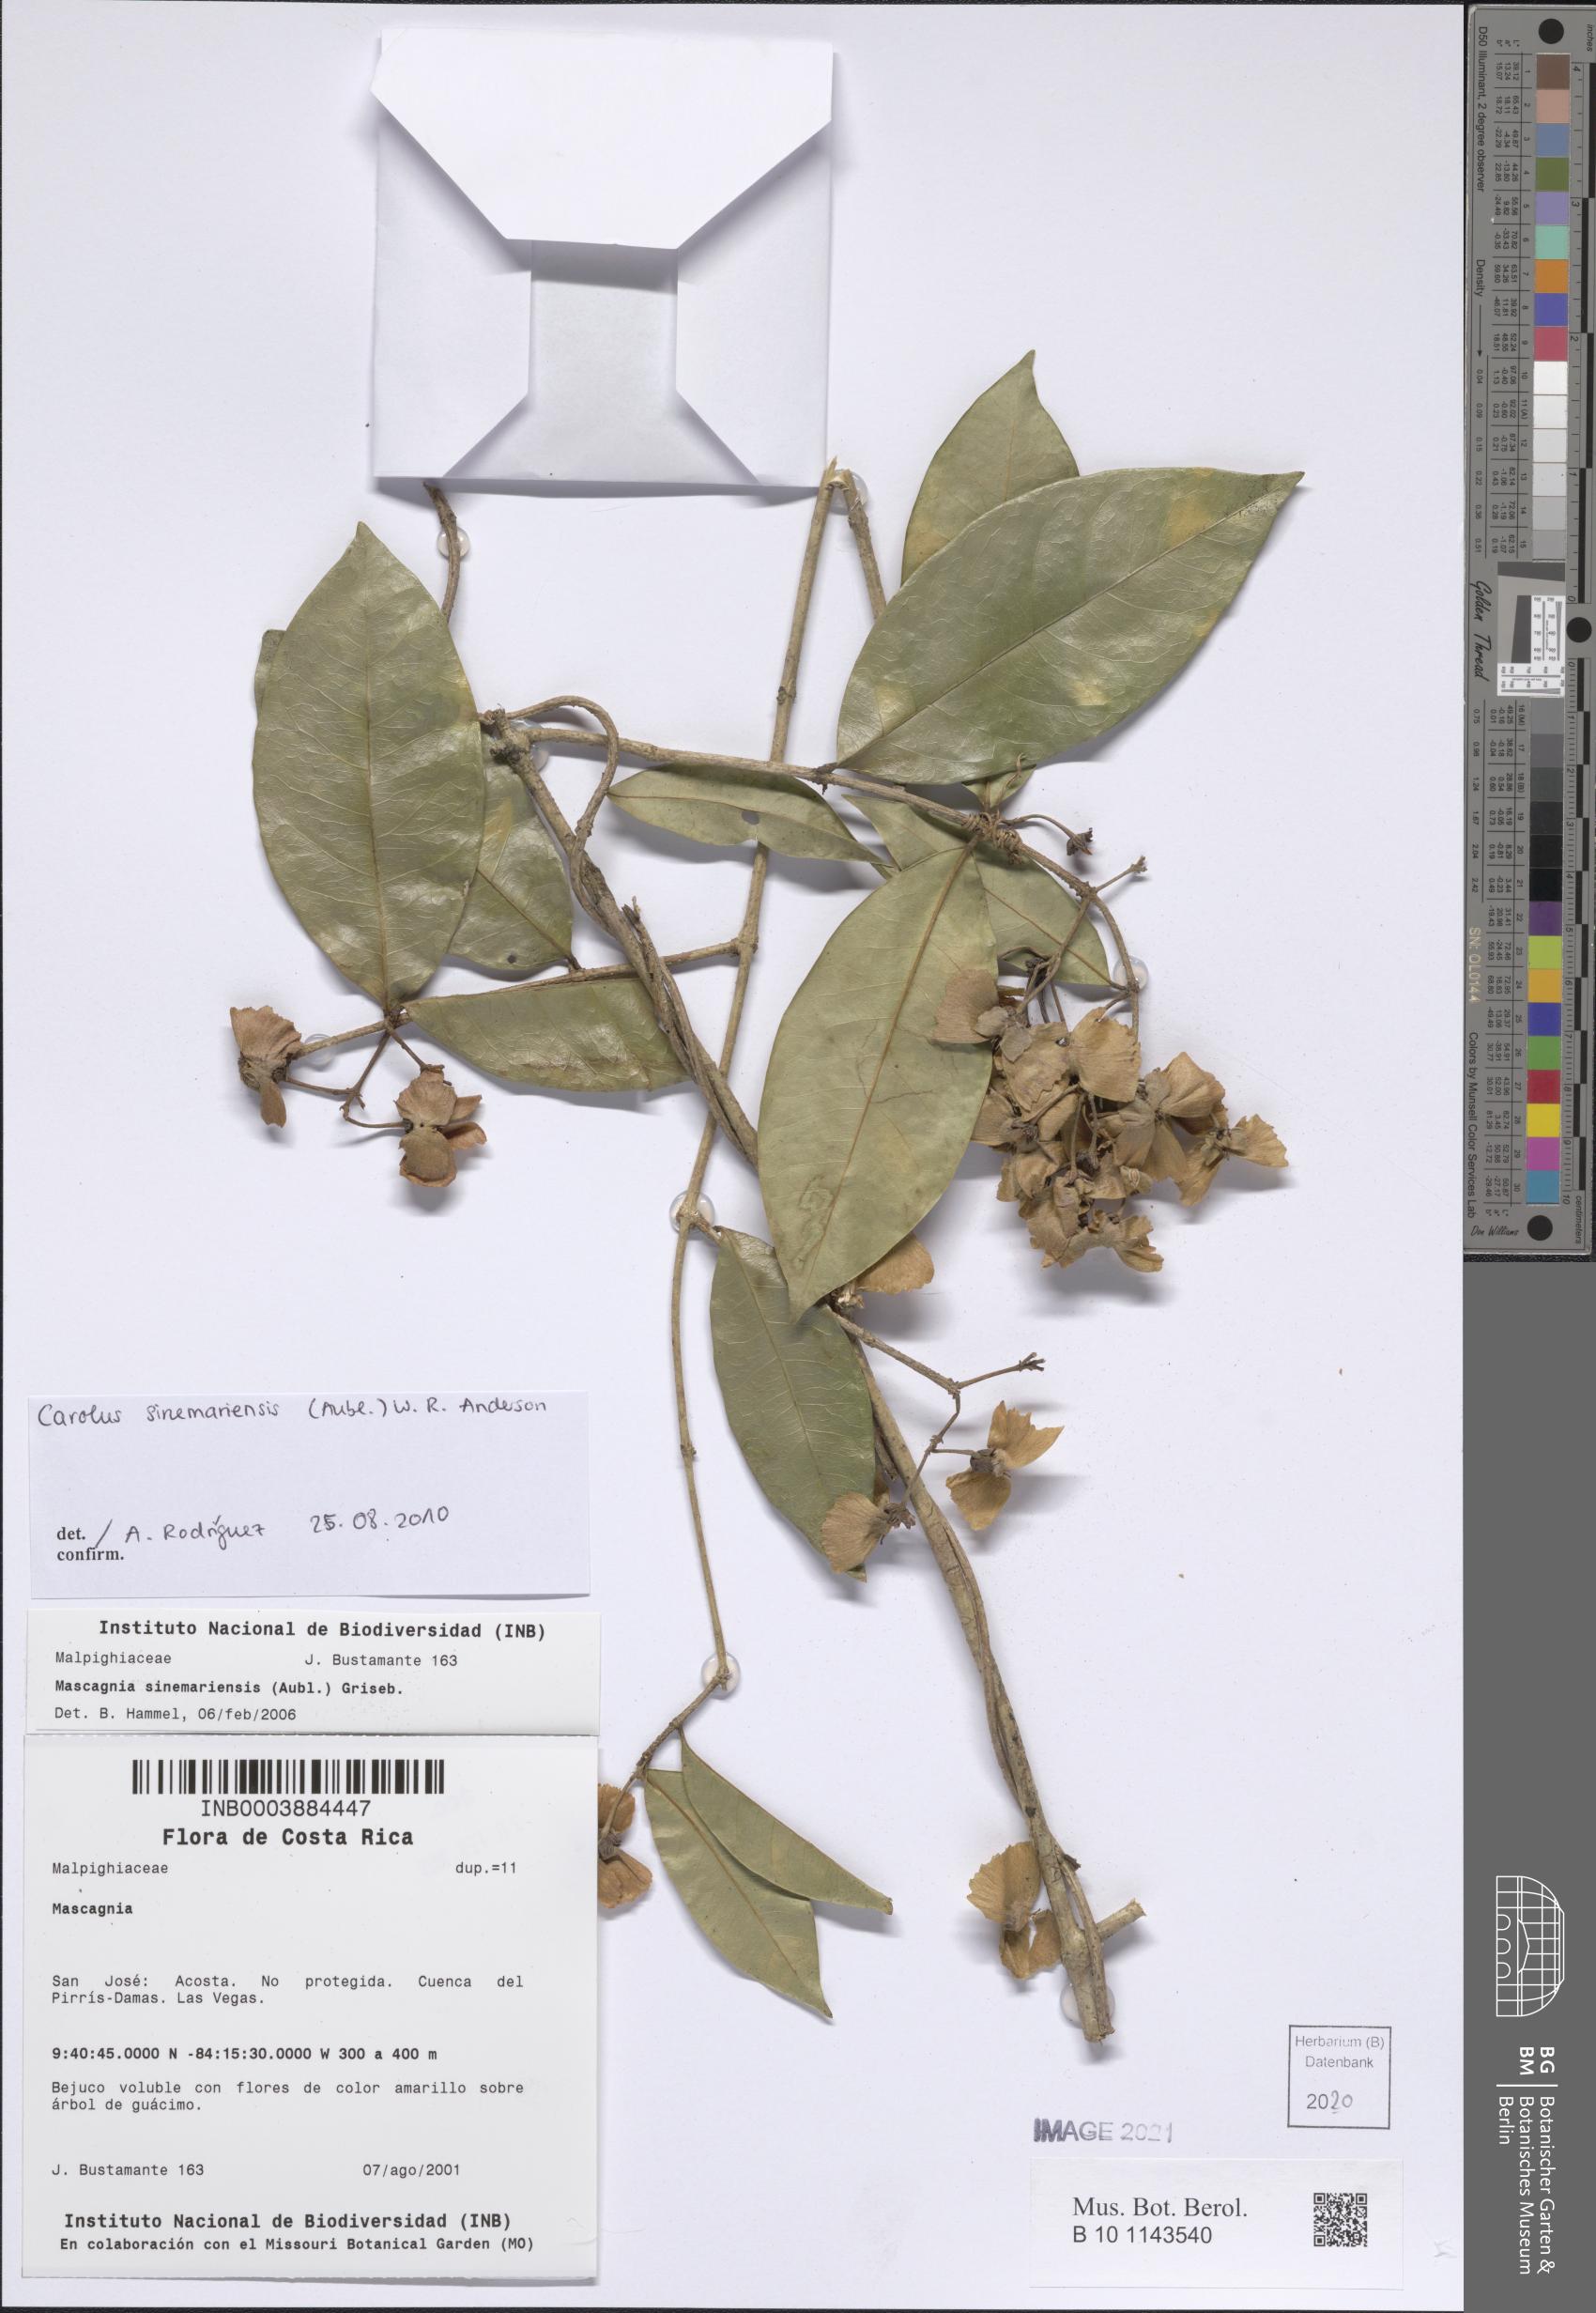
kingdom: Plantae
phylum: Tracheophyta
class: Magnoliopsida
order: Malpighiales
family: Malpighiaceae
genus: Carolus
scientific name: Carolus sinemariensis
